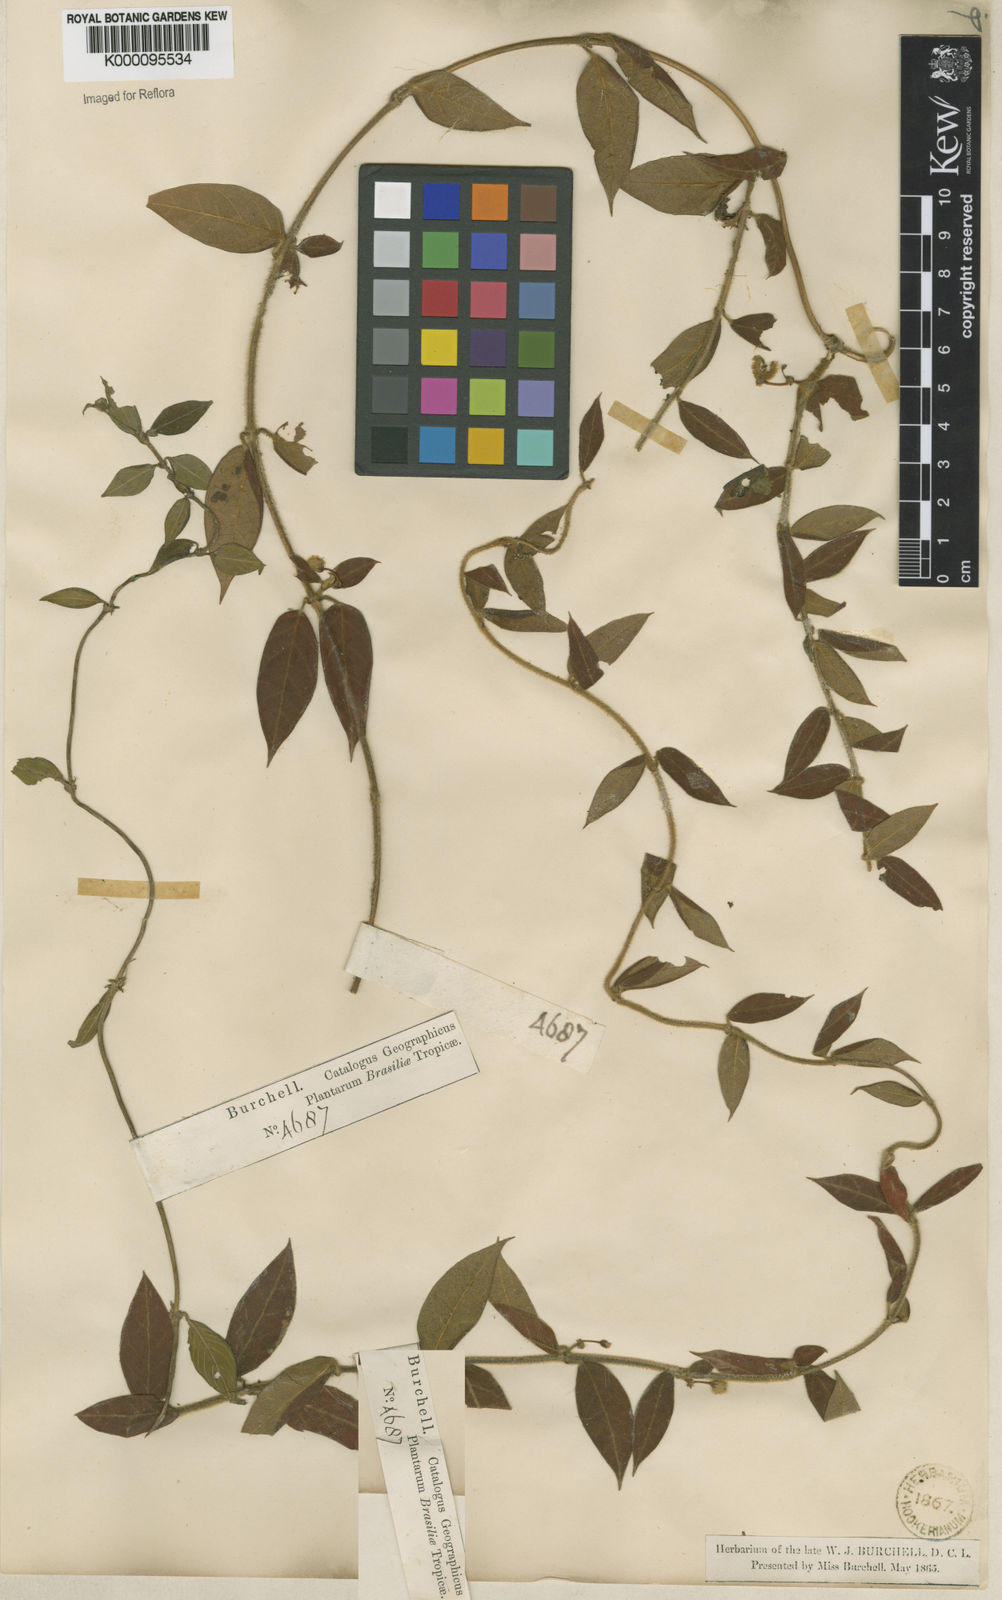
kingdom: Plantae
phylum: Tracheophyta
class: Magnoliopsida
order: Gentianales
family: Apocynaceae
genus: Ditassa
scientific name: Ditassa hispida
